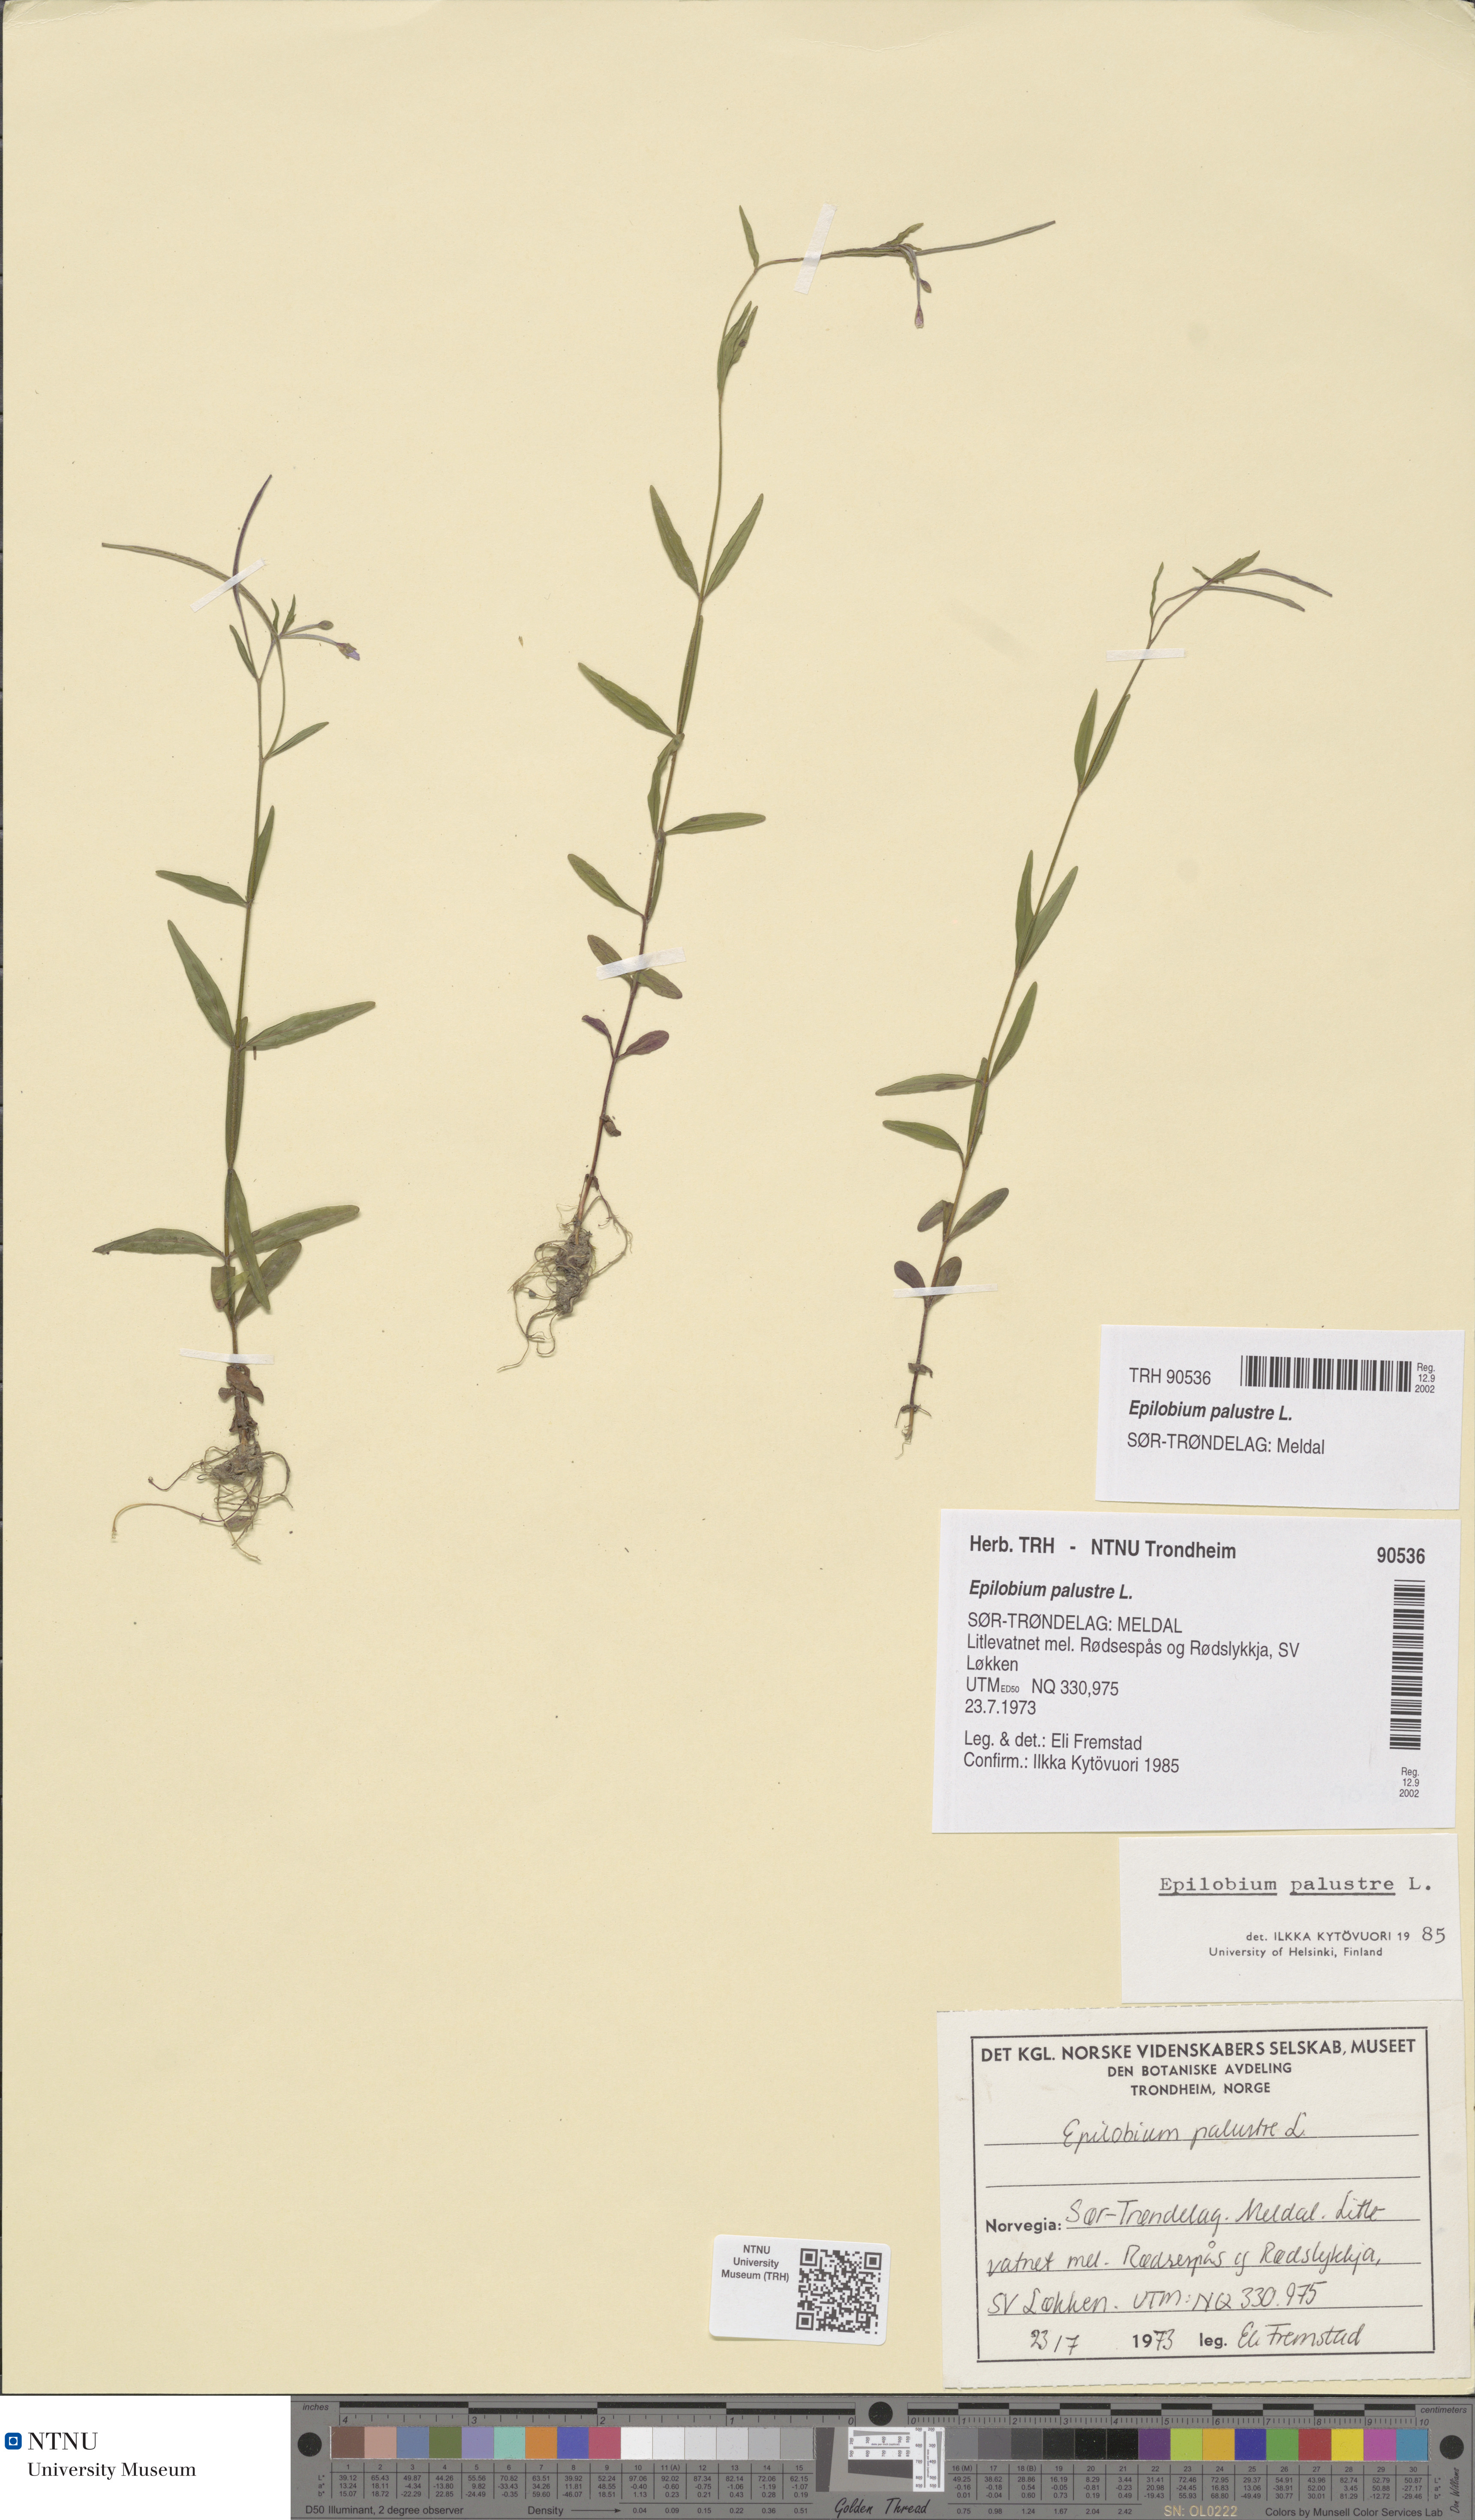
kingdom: Plantae
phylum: Tracheophyta
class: Magnoliopsida
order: Myrtales
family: Onagraceae
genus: Epilobium
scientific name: Epilobium palustre
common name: Marsh willowherb
